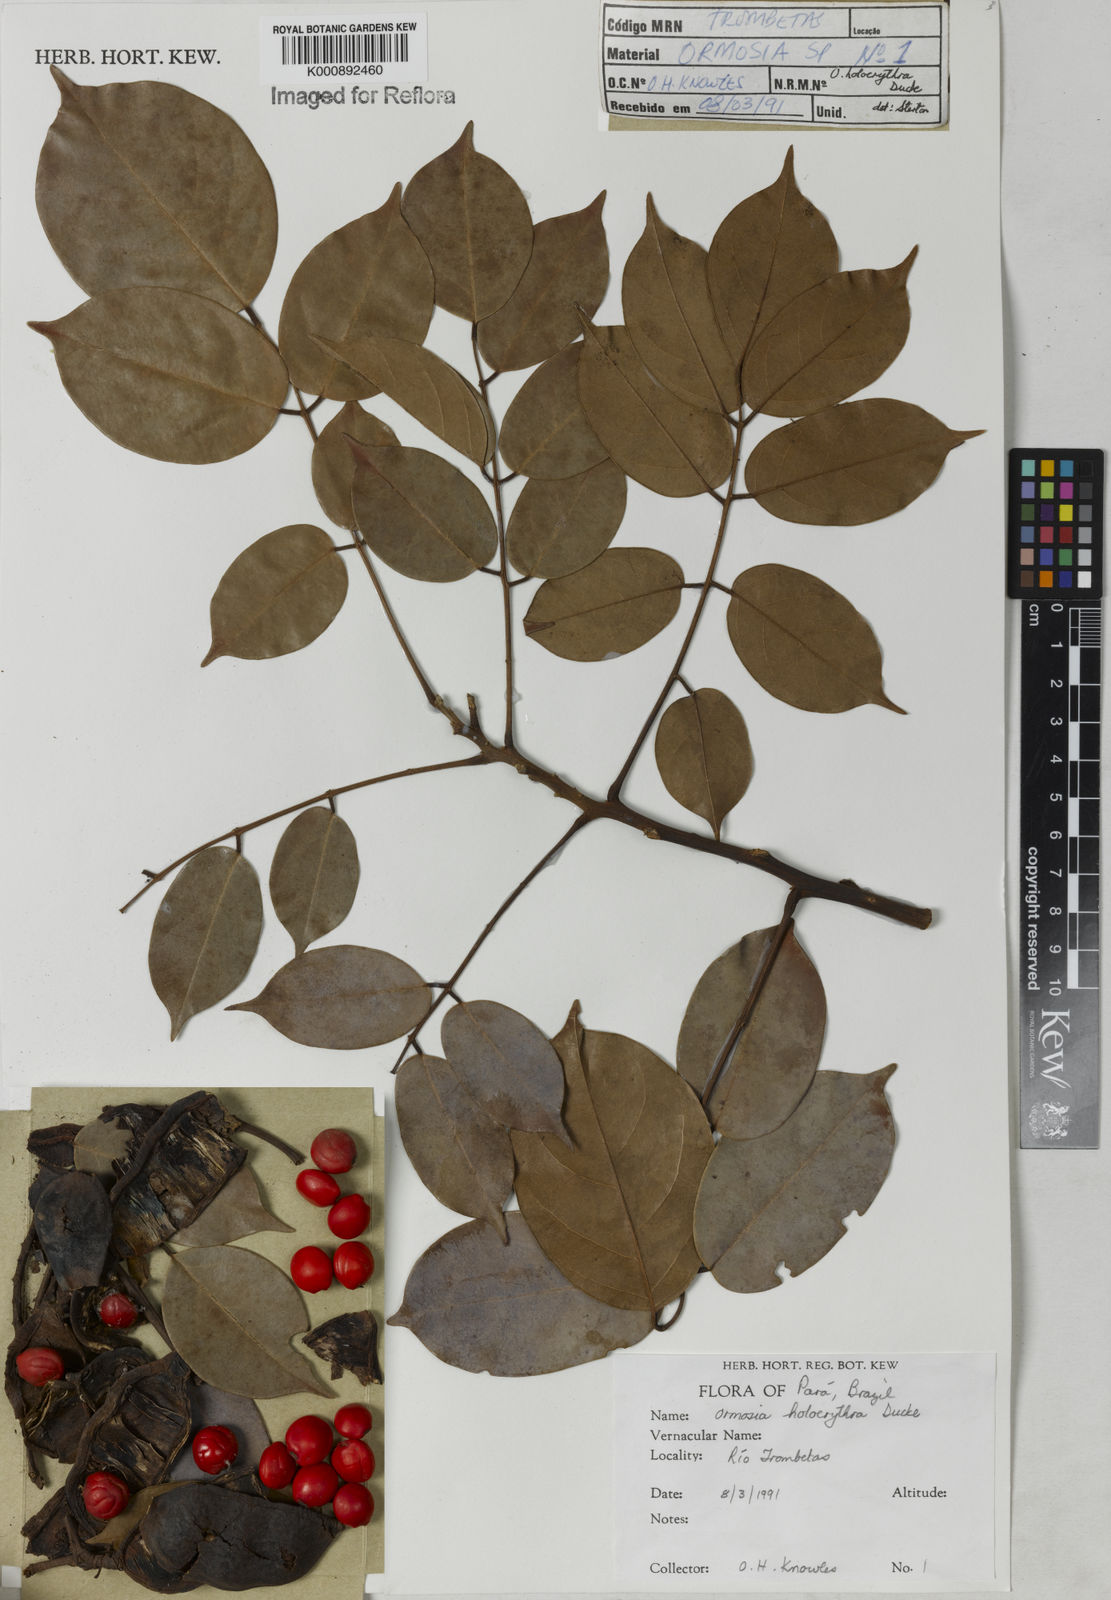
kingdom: Plantae
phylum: Tracheophyta
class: Magnoliopsida
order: Fabales
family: Fabaceae
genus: Ormosia
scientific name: Ormosia holerythra
